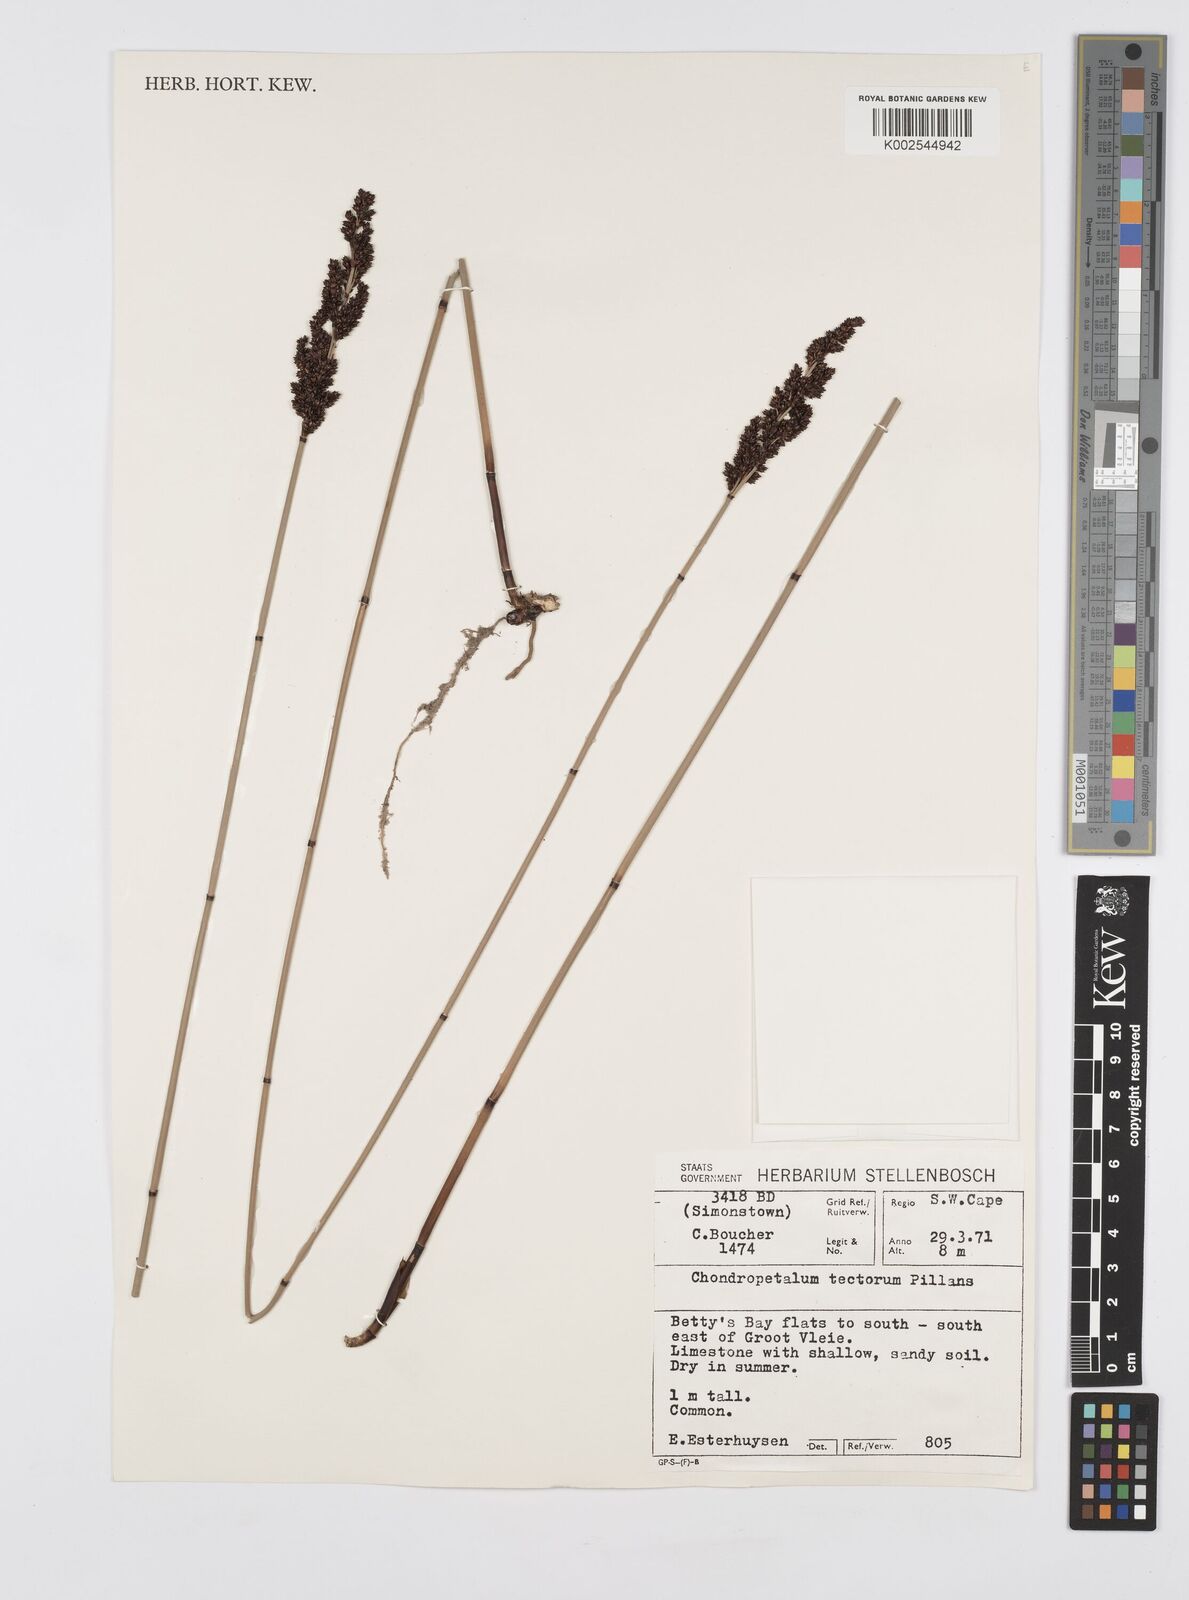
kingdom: Plantae
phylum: Tracheophyta
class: Liliopsida
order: Poales
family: Restionaceae
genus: Elegia
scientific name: Elegia tectorum
